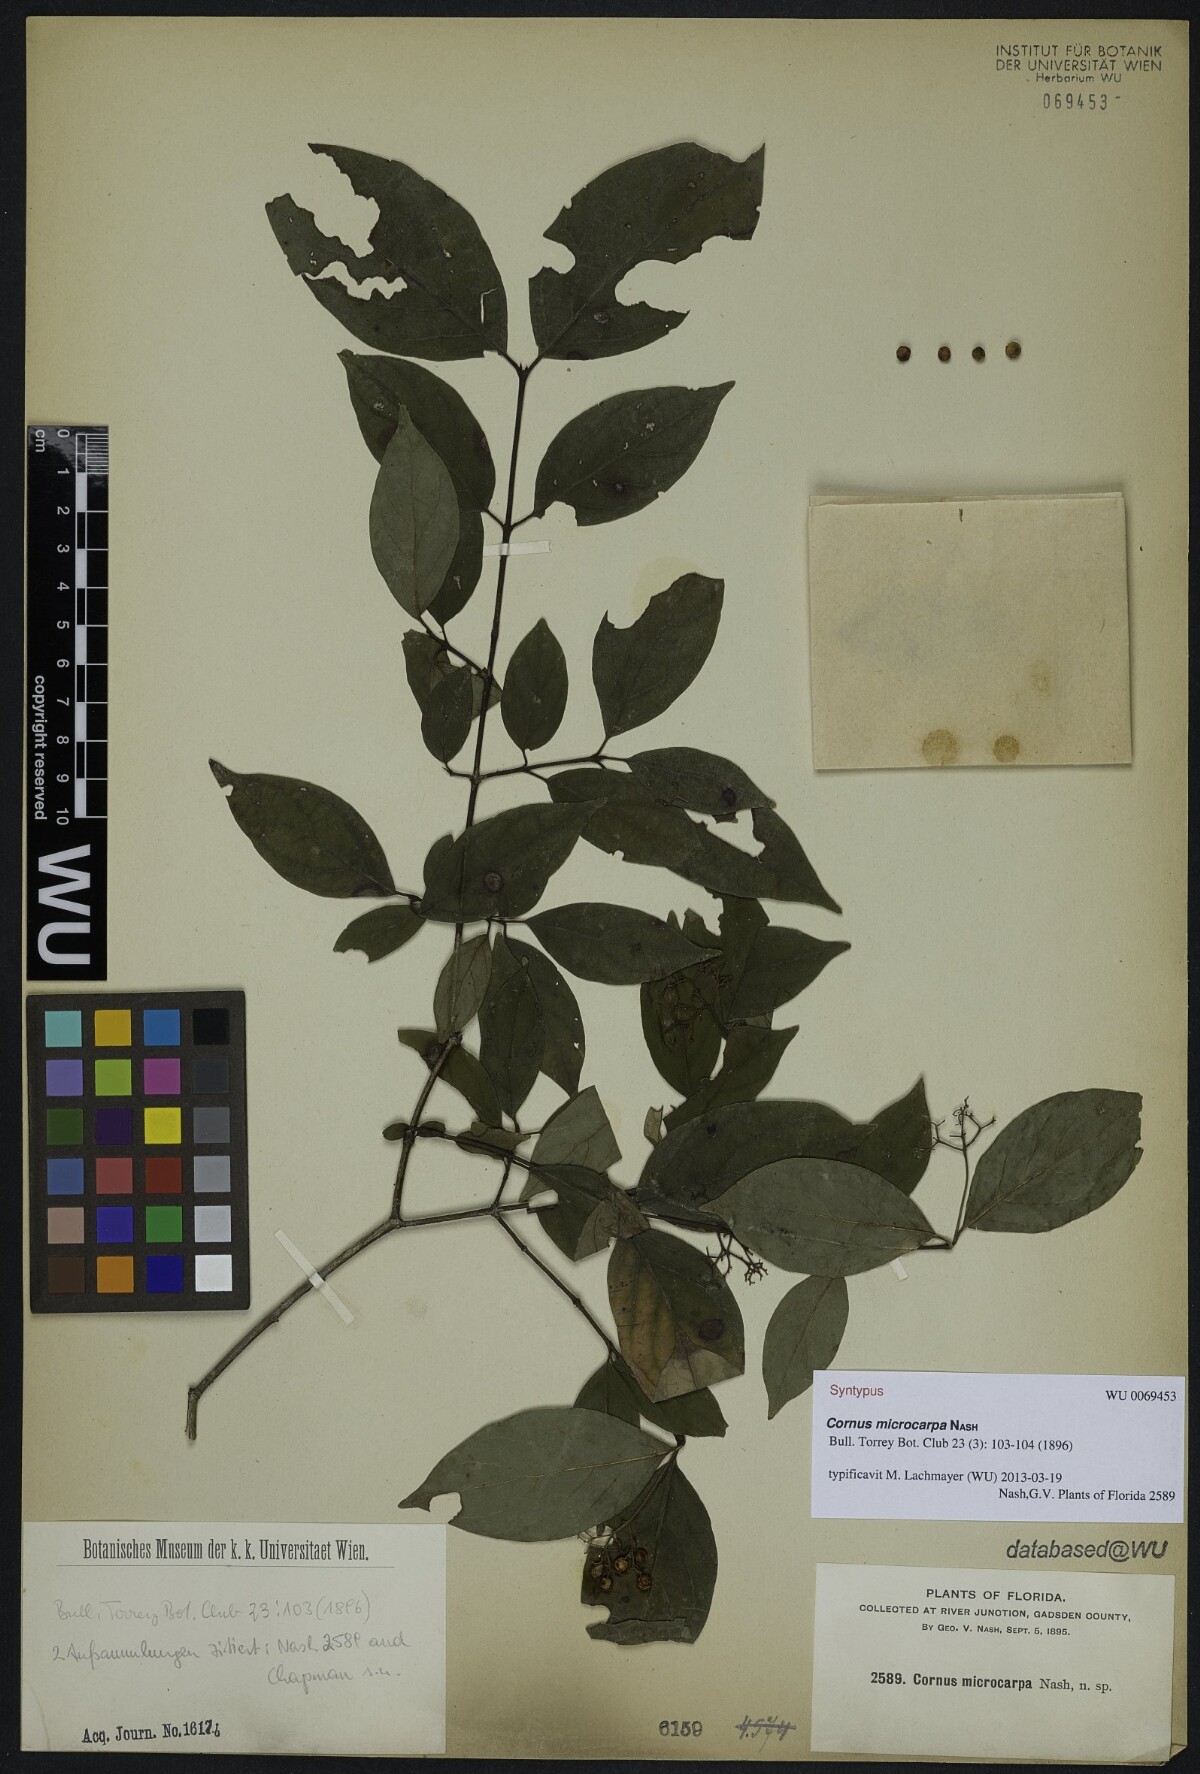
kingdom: Plantae
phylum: Tracheophyta
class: Magnoliopsida
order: Cornales
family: Cornaceae
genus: Cornus
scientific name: Cornus asperifolia
